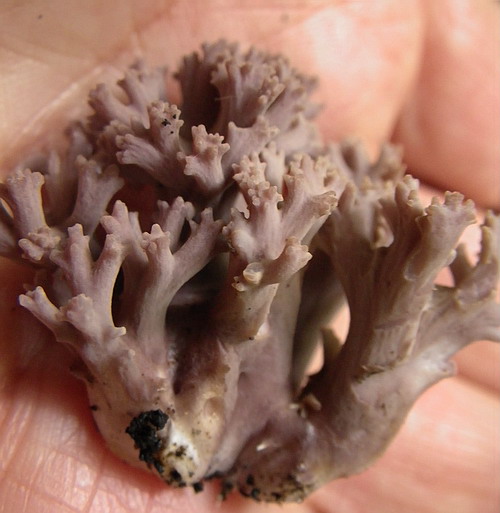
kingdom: Fungi
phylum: Basidiomycota
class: Agaricomycetes
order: Gomphales
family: Gomphaceae
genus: Ramaria
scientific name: Ramaria fumigata
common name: violet koralsvamp
